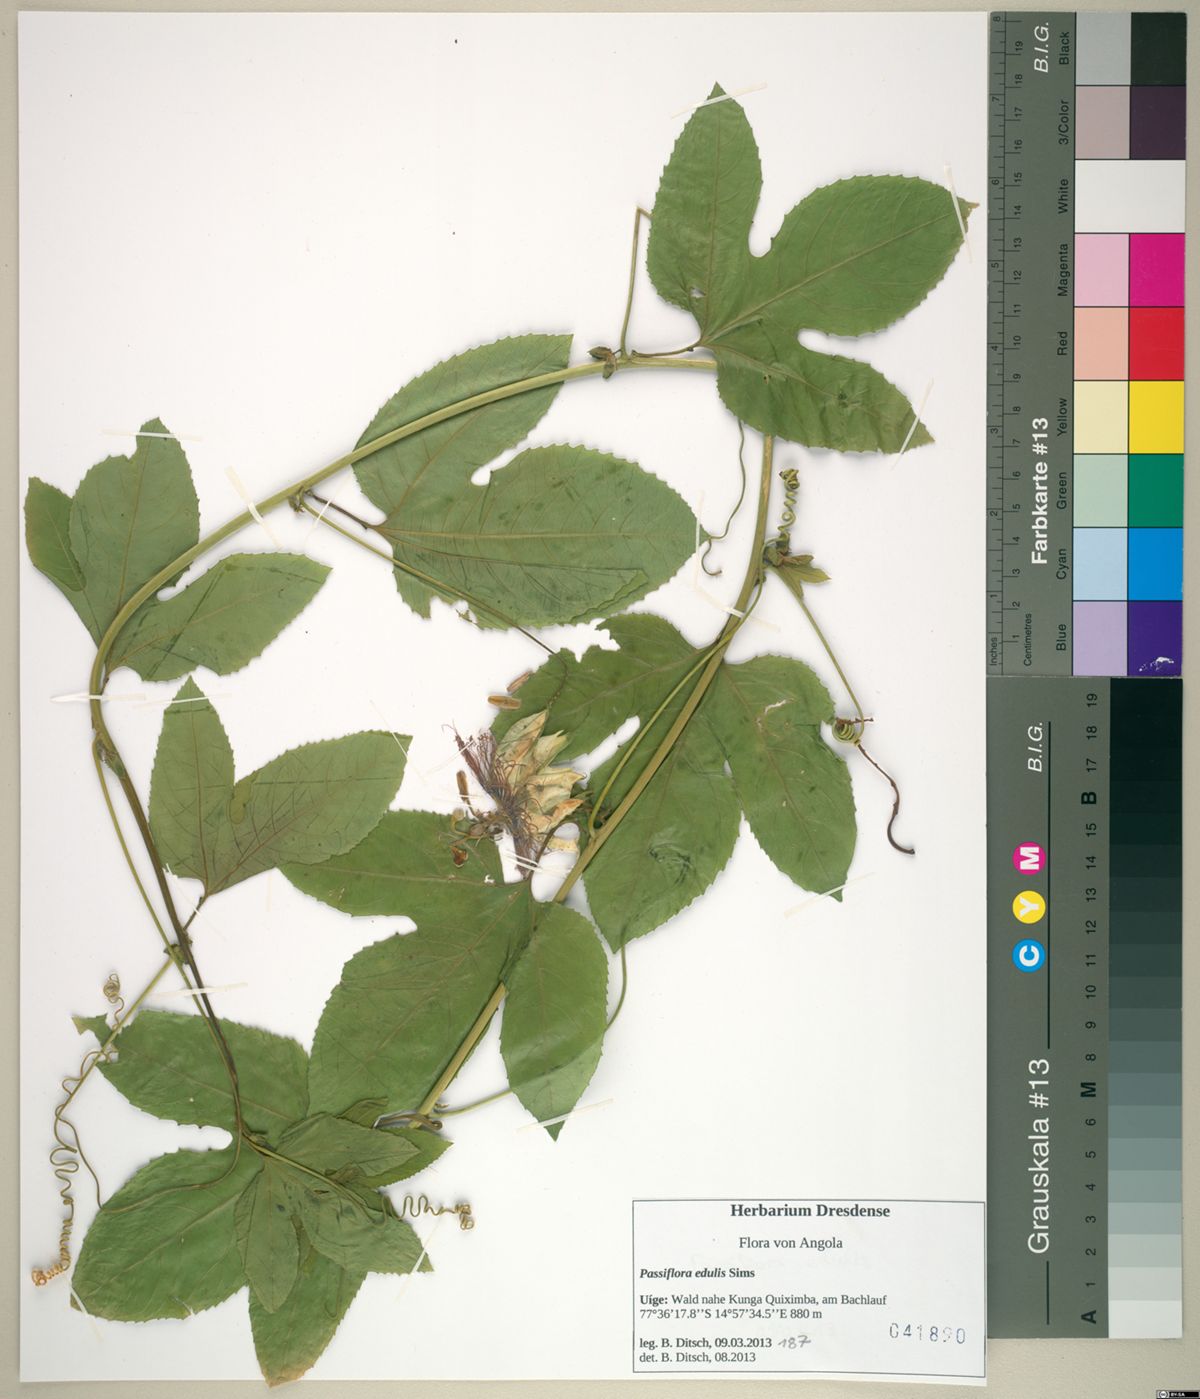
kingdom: Plantae
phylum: Tracheophyta
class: Magnoliopsida
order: Malpighiales
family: Passifloraceae
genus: Passiflora
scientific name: Passiflora edulis
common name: Purple granadilla
